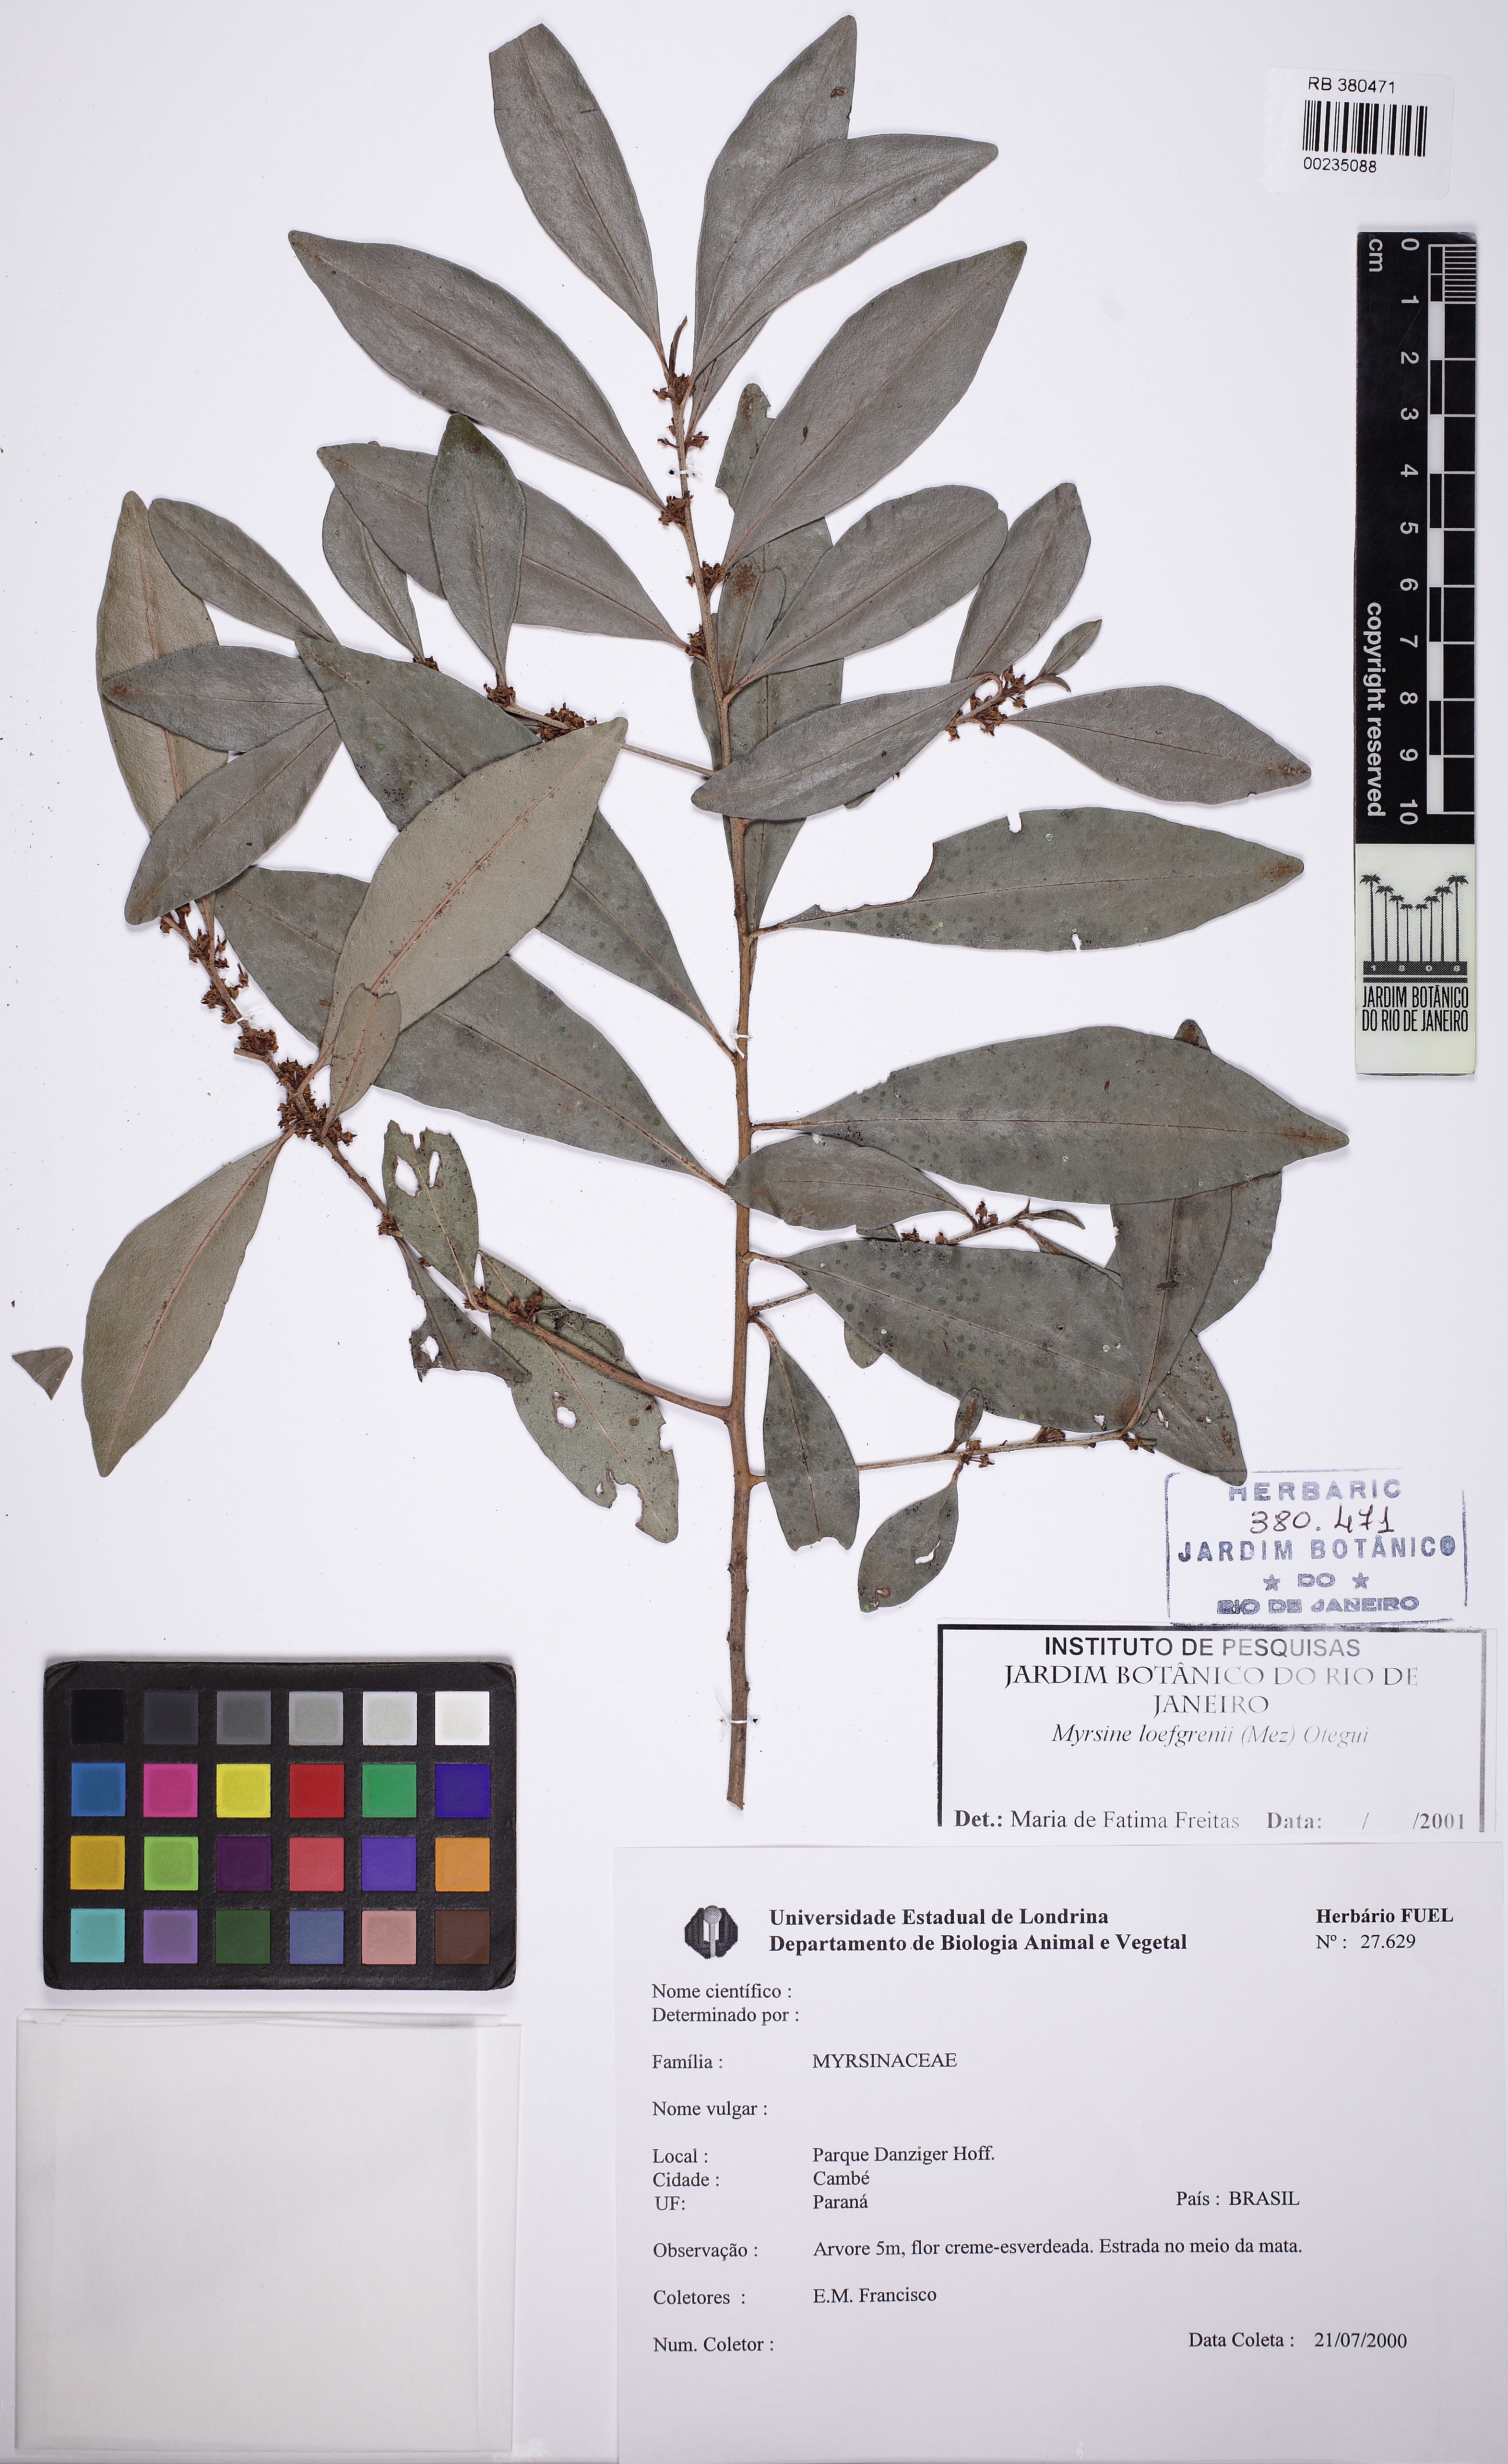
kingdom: Plantae
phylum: Tracheophyta
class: Magnoliopsida
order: Ericales
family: Primulaceae
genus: Myrsine
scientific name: Myrsine loefgrenii
